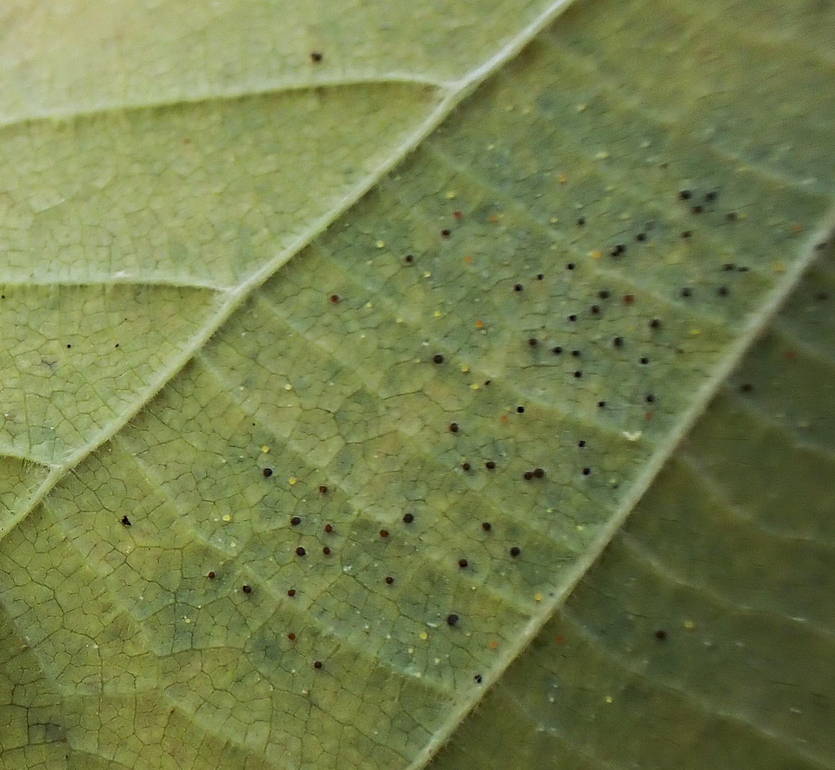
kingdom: Fungi
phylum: Ascomycota
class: Leotiomycetes
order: Helotiales
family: Erysiphaceae
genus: Phyllactinia
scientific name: Phyllactinia guttata
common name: hassel-meldug
